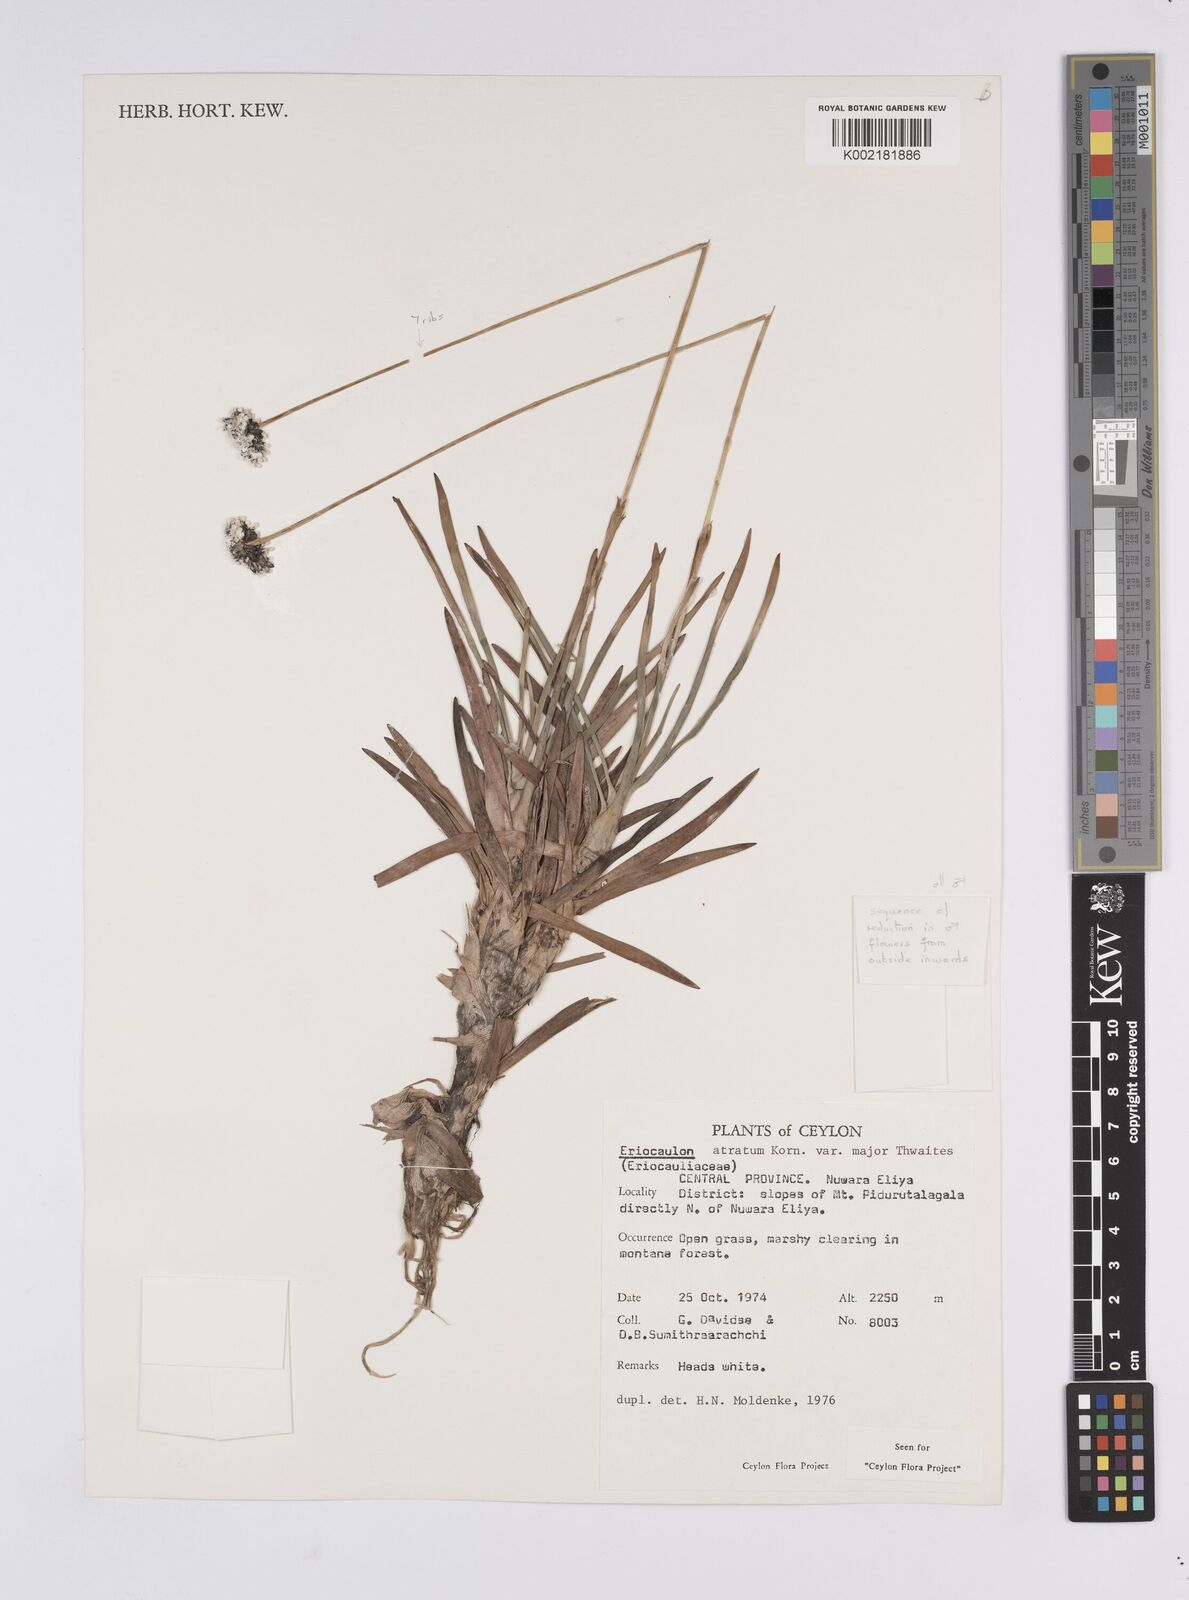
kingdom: Plantae
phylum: Tracheophyta
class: Liliopsida
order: Poales
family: Eriocaulaceae
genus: Eriocaulon
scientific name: Eriocaulon philippo-coburgii
